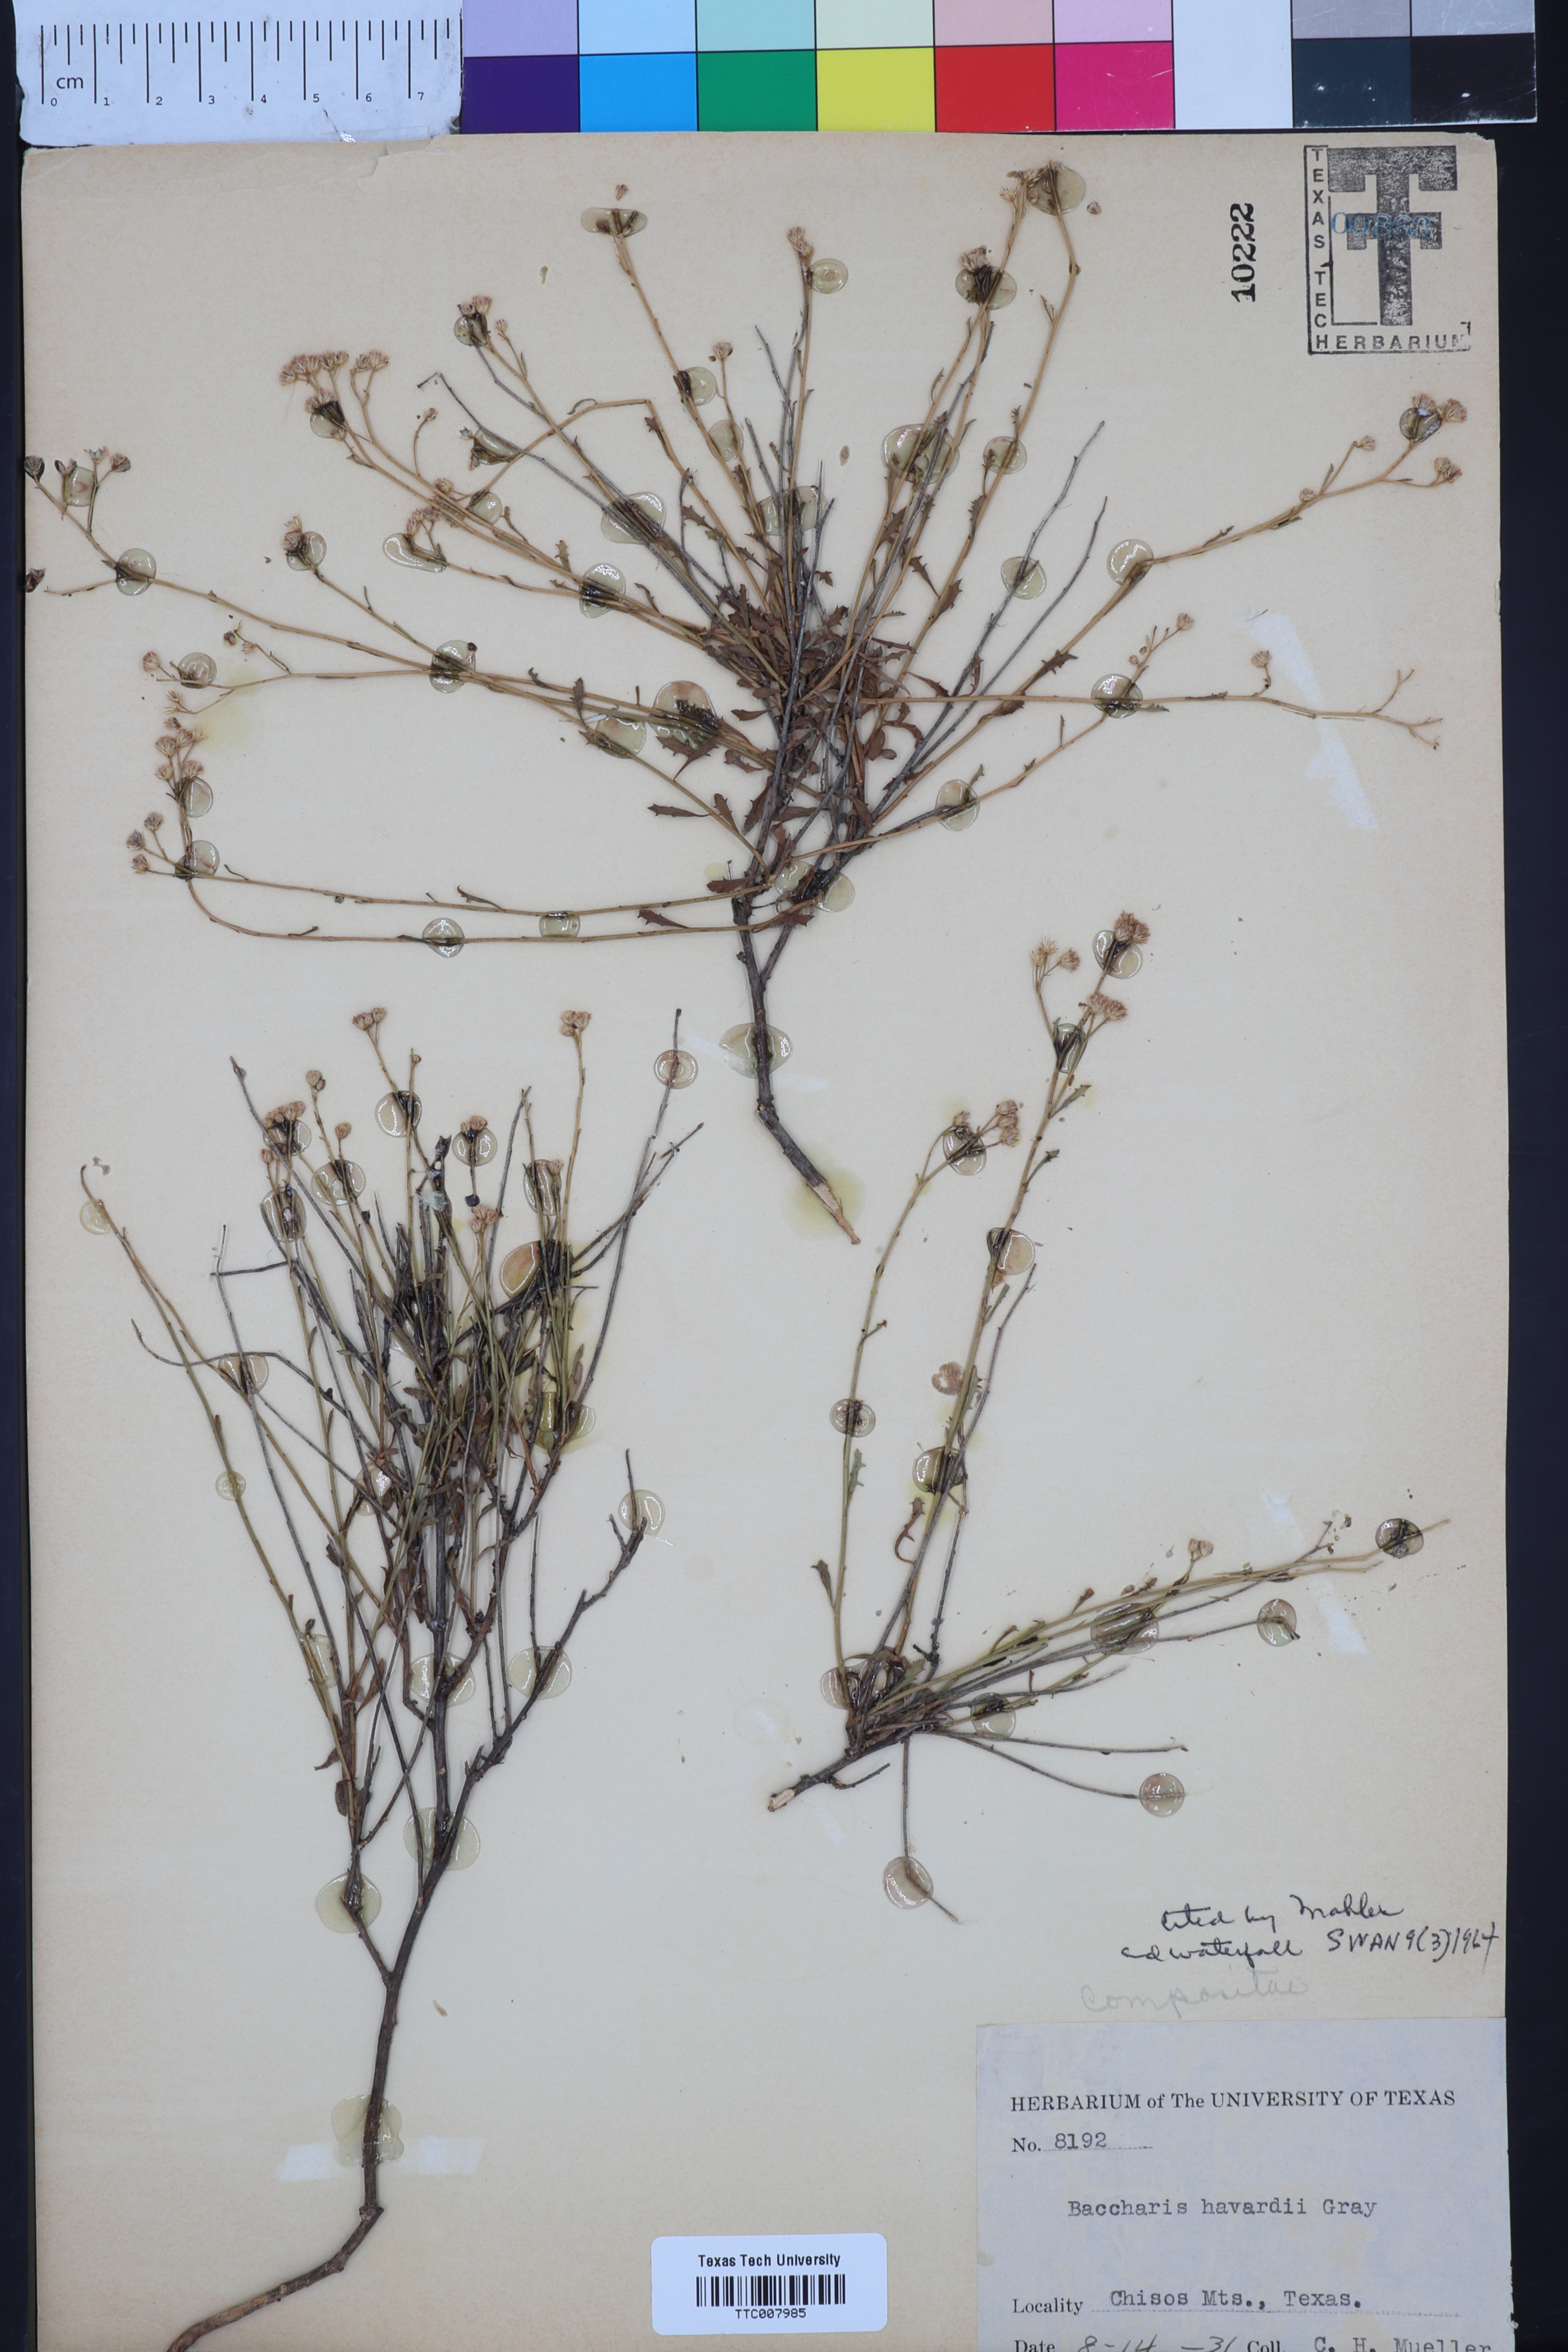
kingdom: Plantae
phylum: Tracheophyta
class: Magnoliopsida
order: Asterales
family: Asteraceae
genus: Baccharis
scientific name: Baccharis havardii
